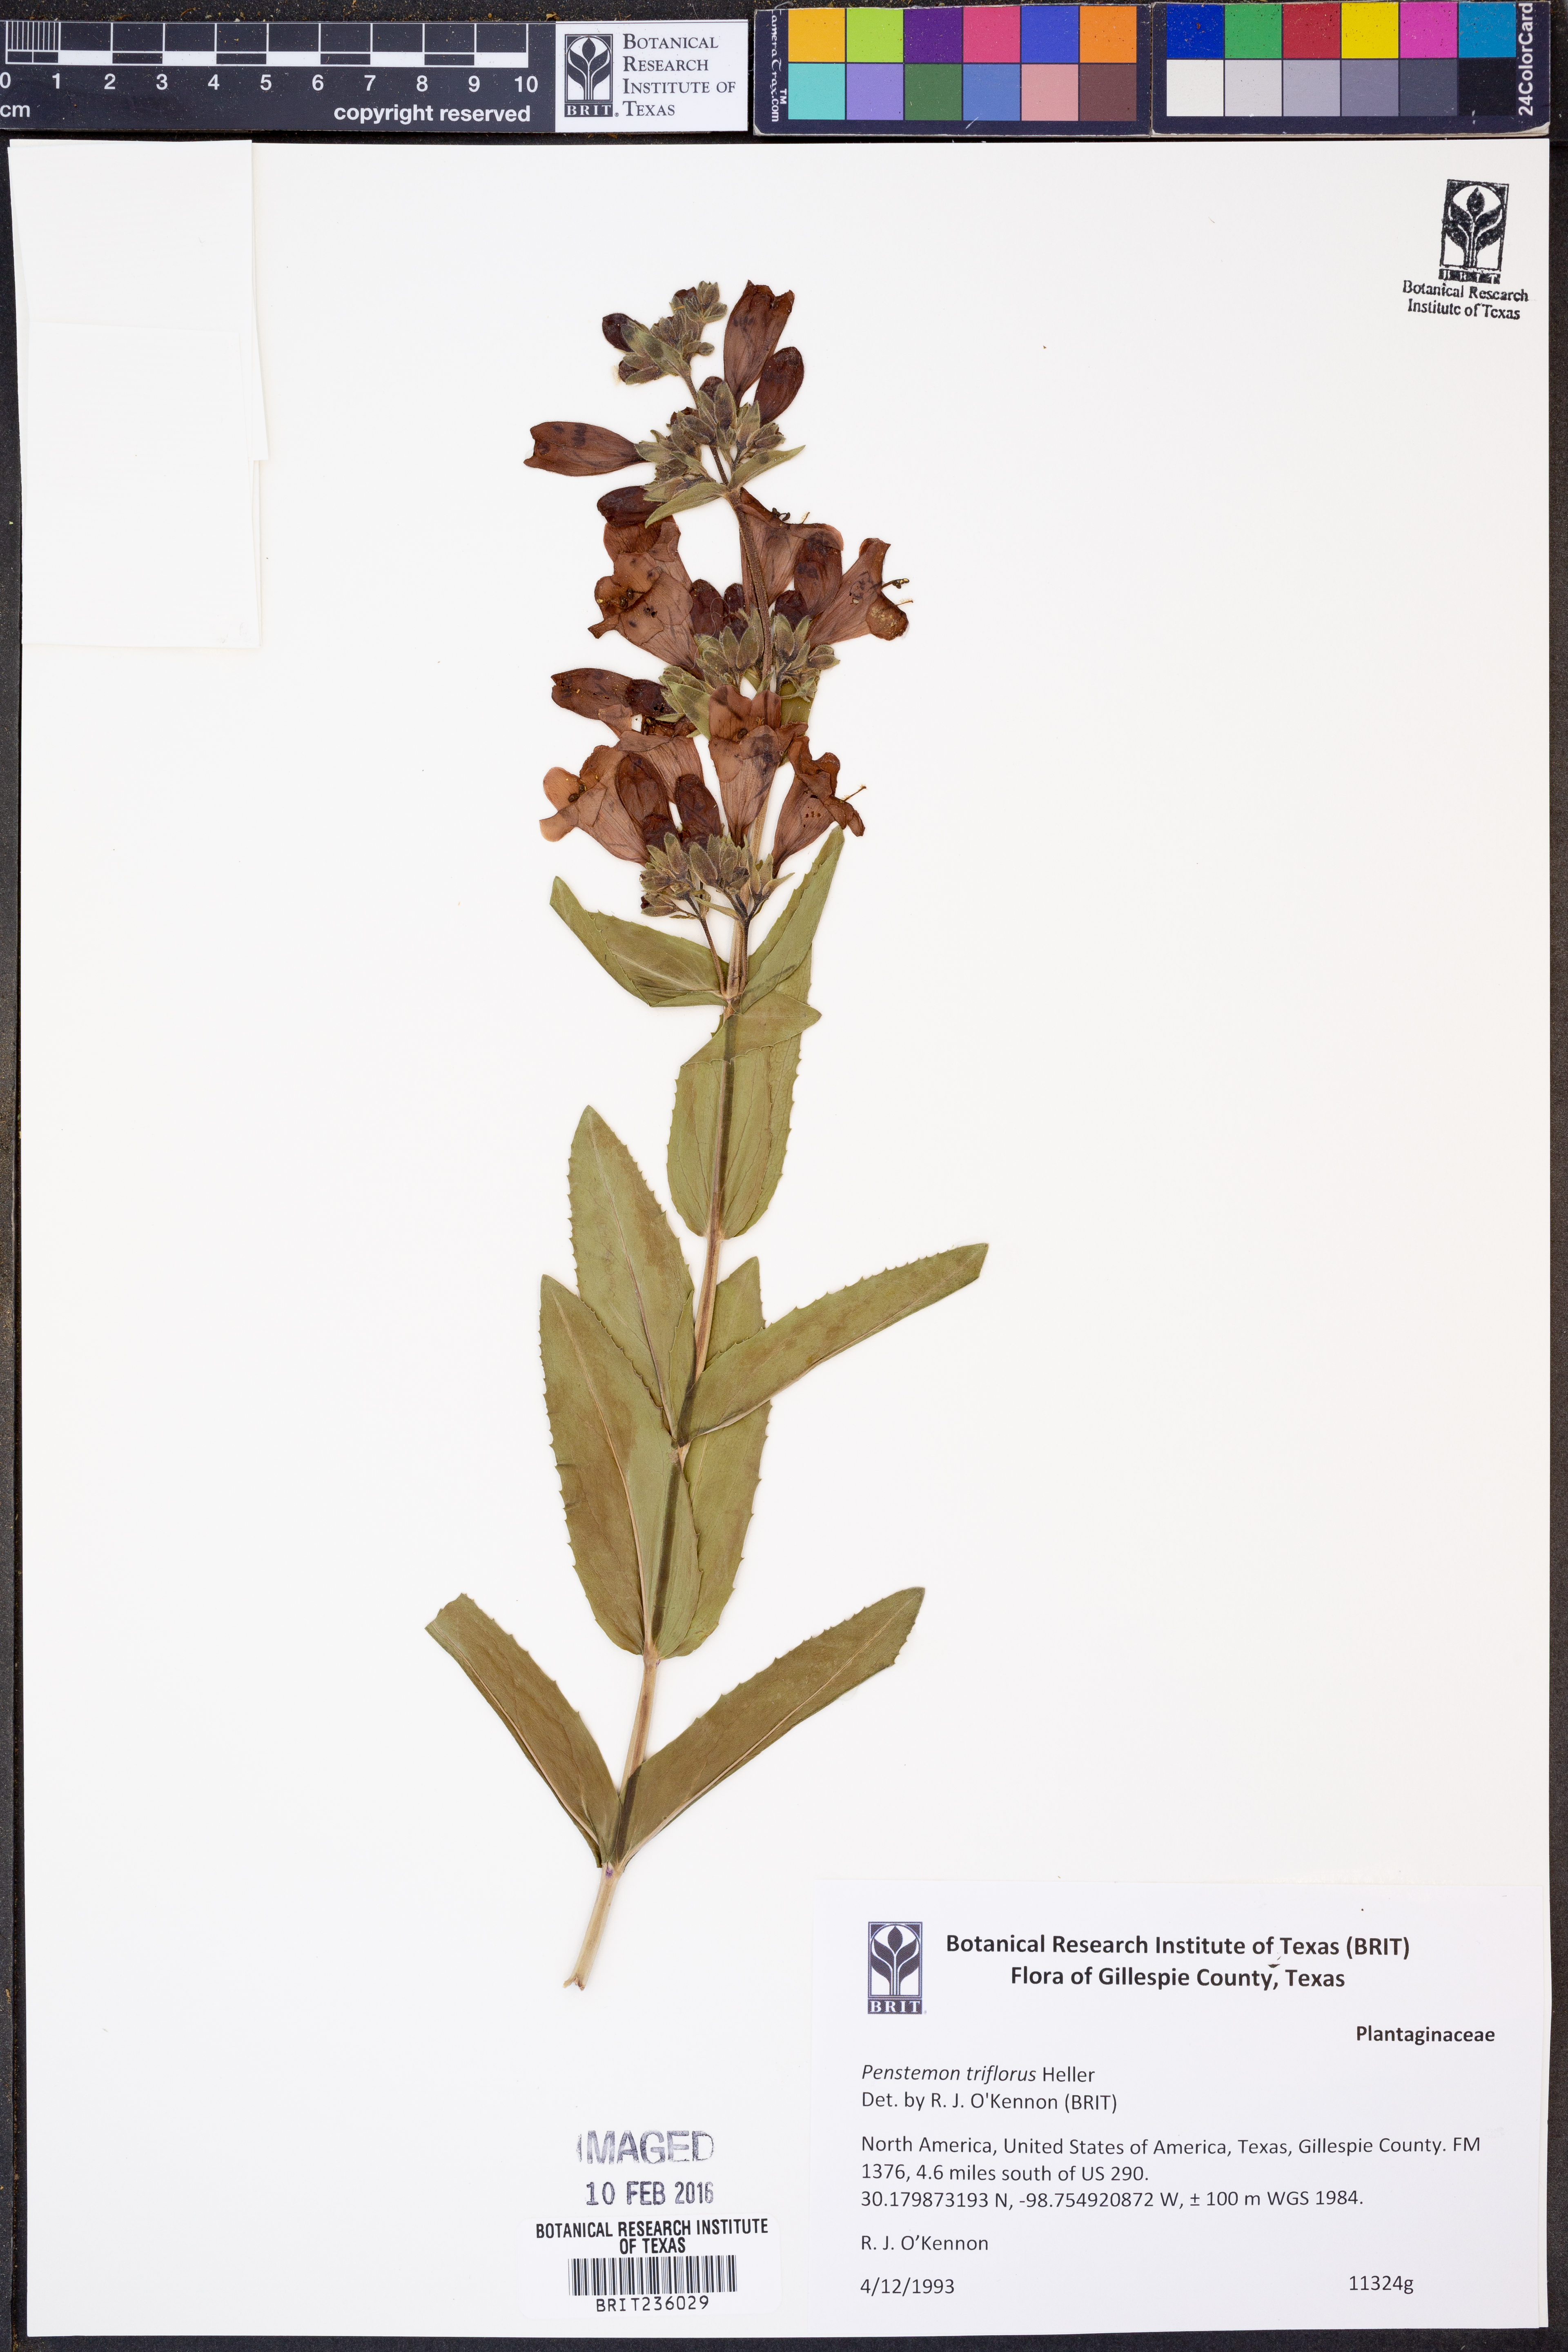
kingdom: Plantae
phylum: Tracheophyta
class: Magnoliopsida
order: Lamiales
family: Plantaginaceae
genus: Penstemon
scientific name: Penstemon triflorus
